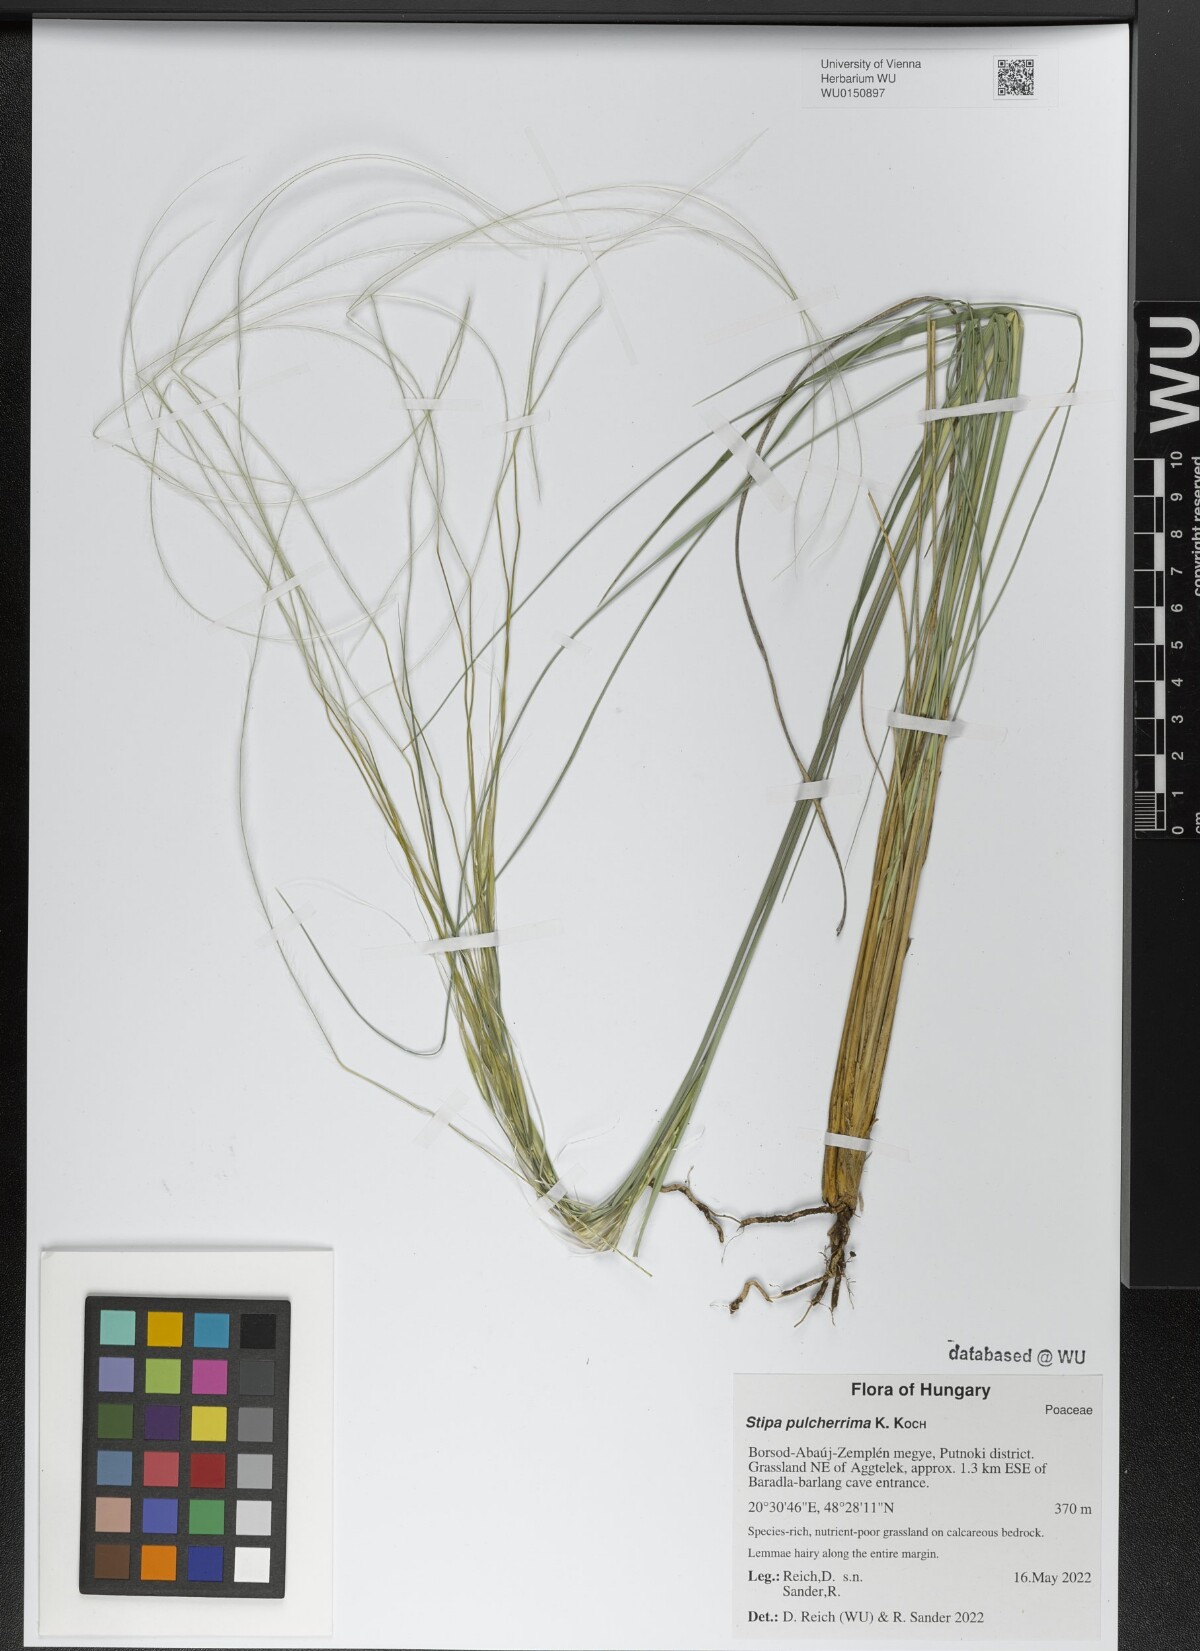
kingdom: Plantae
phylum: Tracheophyta
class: Liliopsida
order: Poales
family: Poaceae
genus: Stipa
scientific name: Stipa pulcherrima
